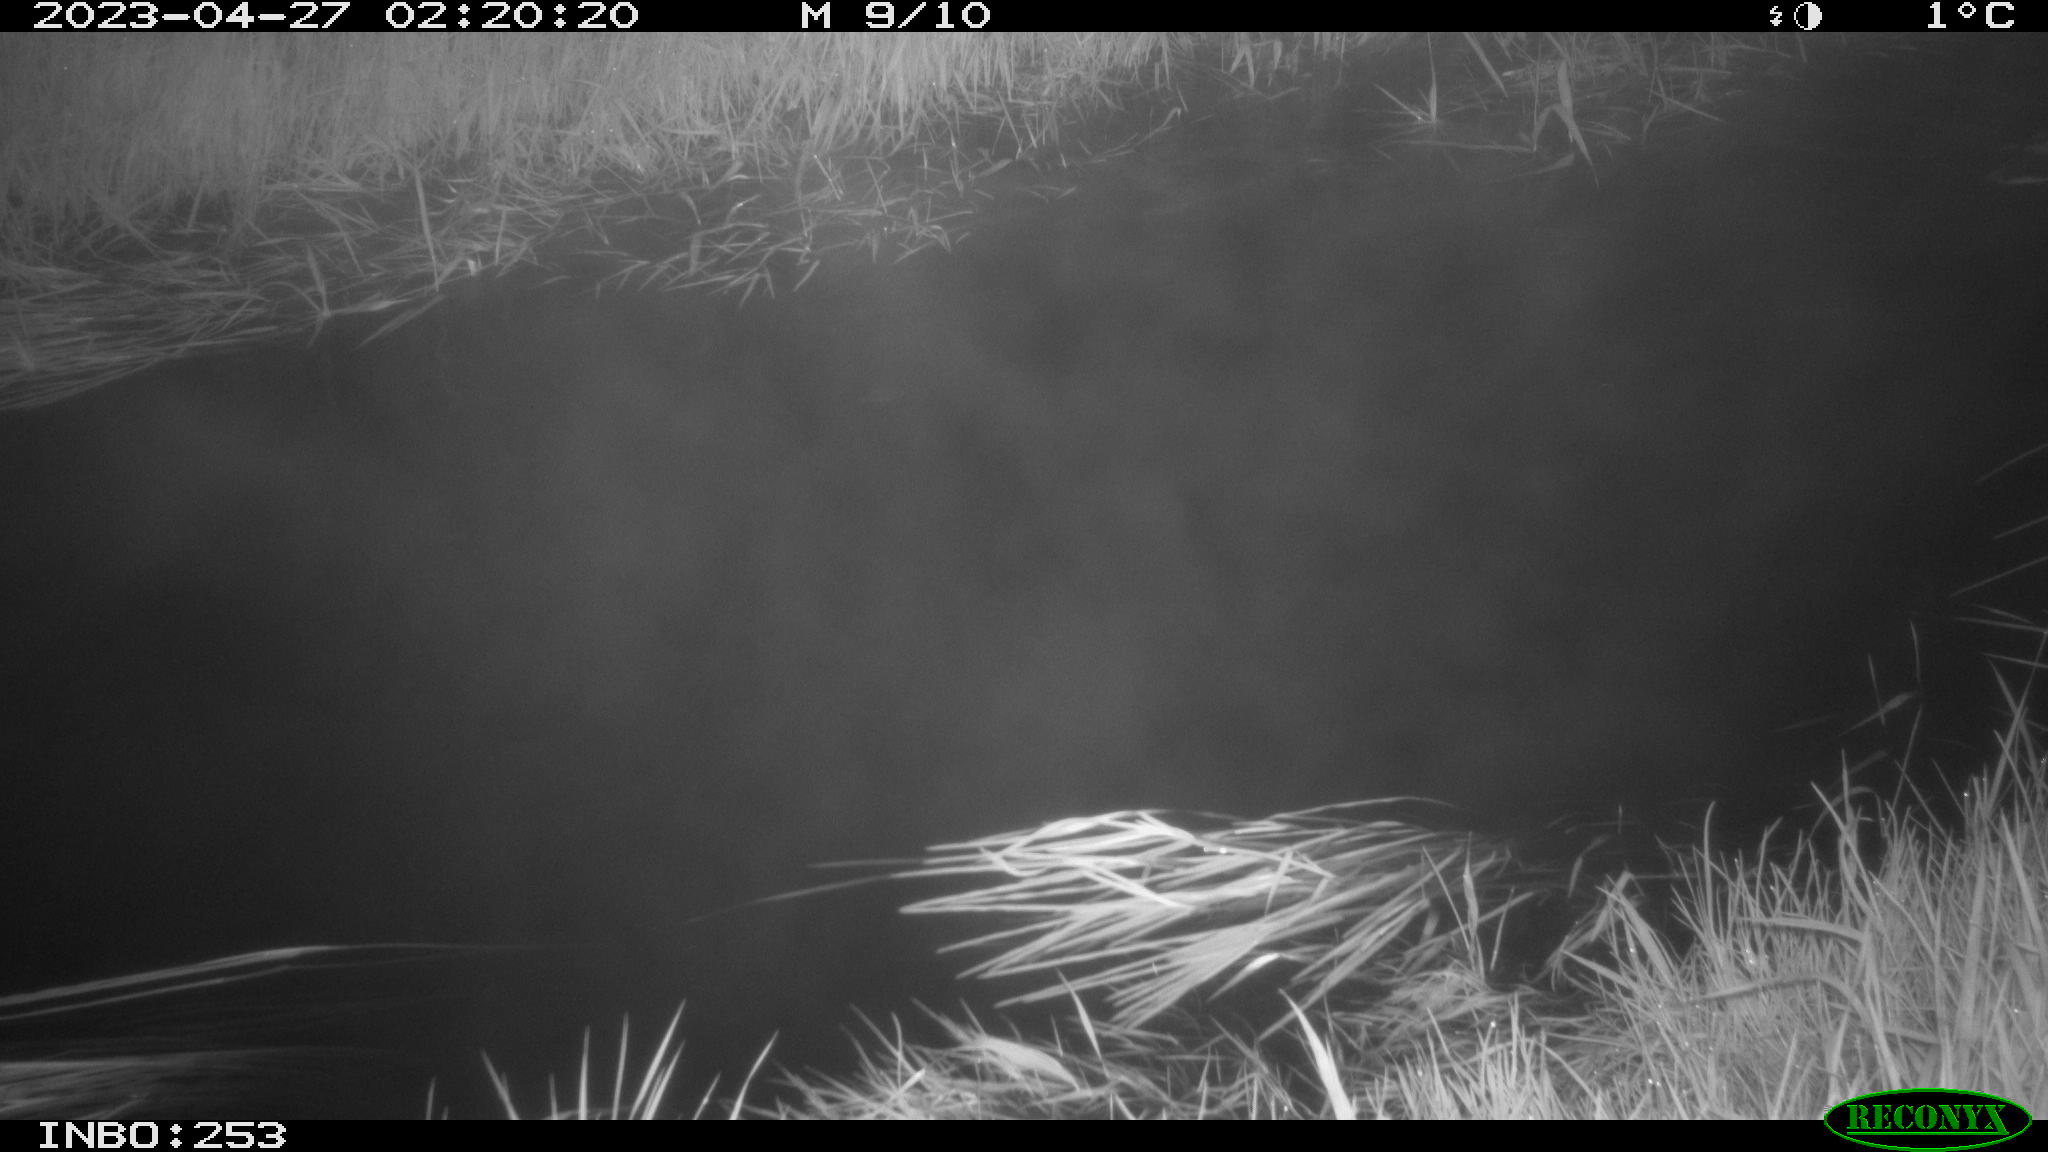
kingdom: Animalia
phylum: Chordata
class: Aves
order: Anseriformes
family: Anatidae
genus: Anas
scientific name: Anas
